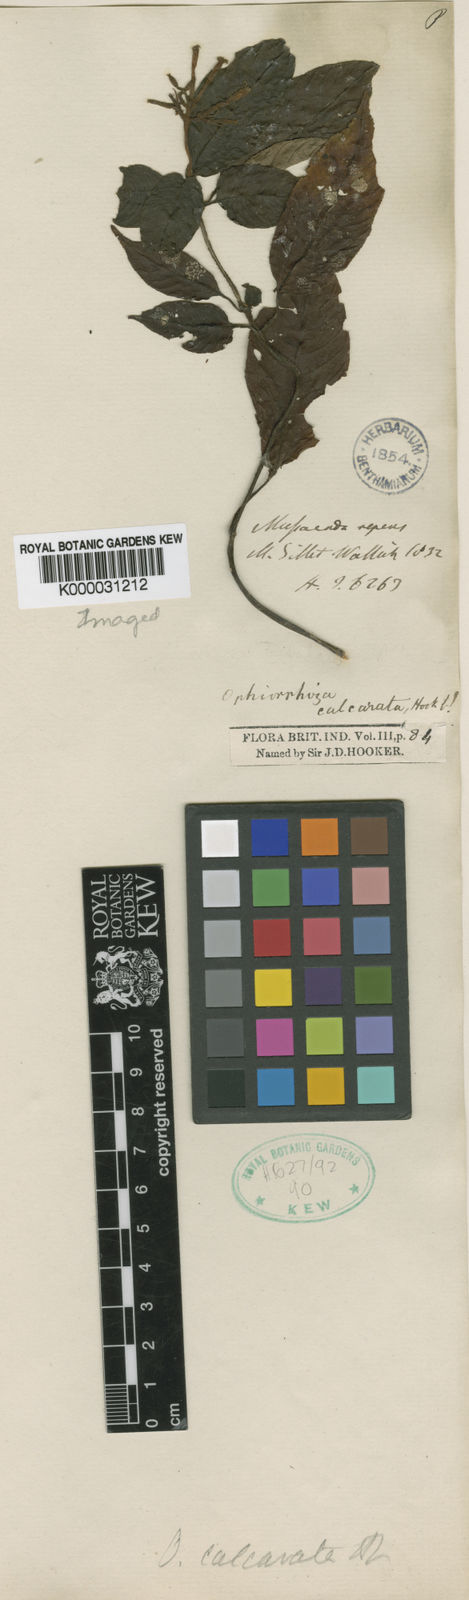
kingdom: Plantae
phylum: Tracheophyta
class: Magnoliopsida
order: Gentianales
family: Rubiaceae
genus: Ophiorrhiza
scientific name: Ophiorrhiza repens
